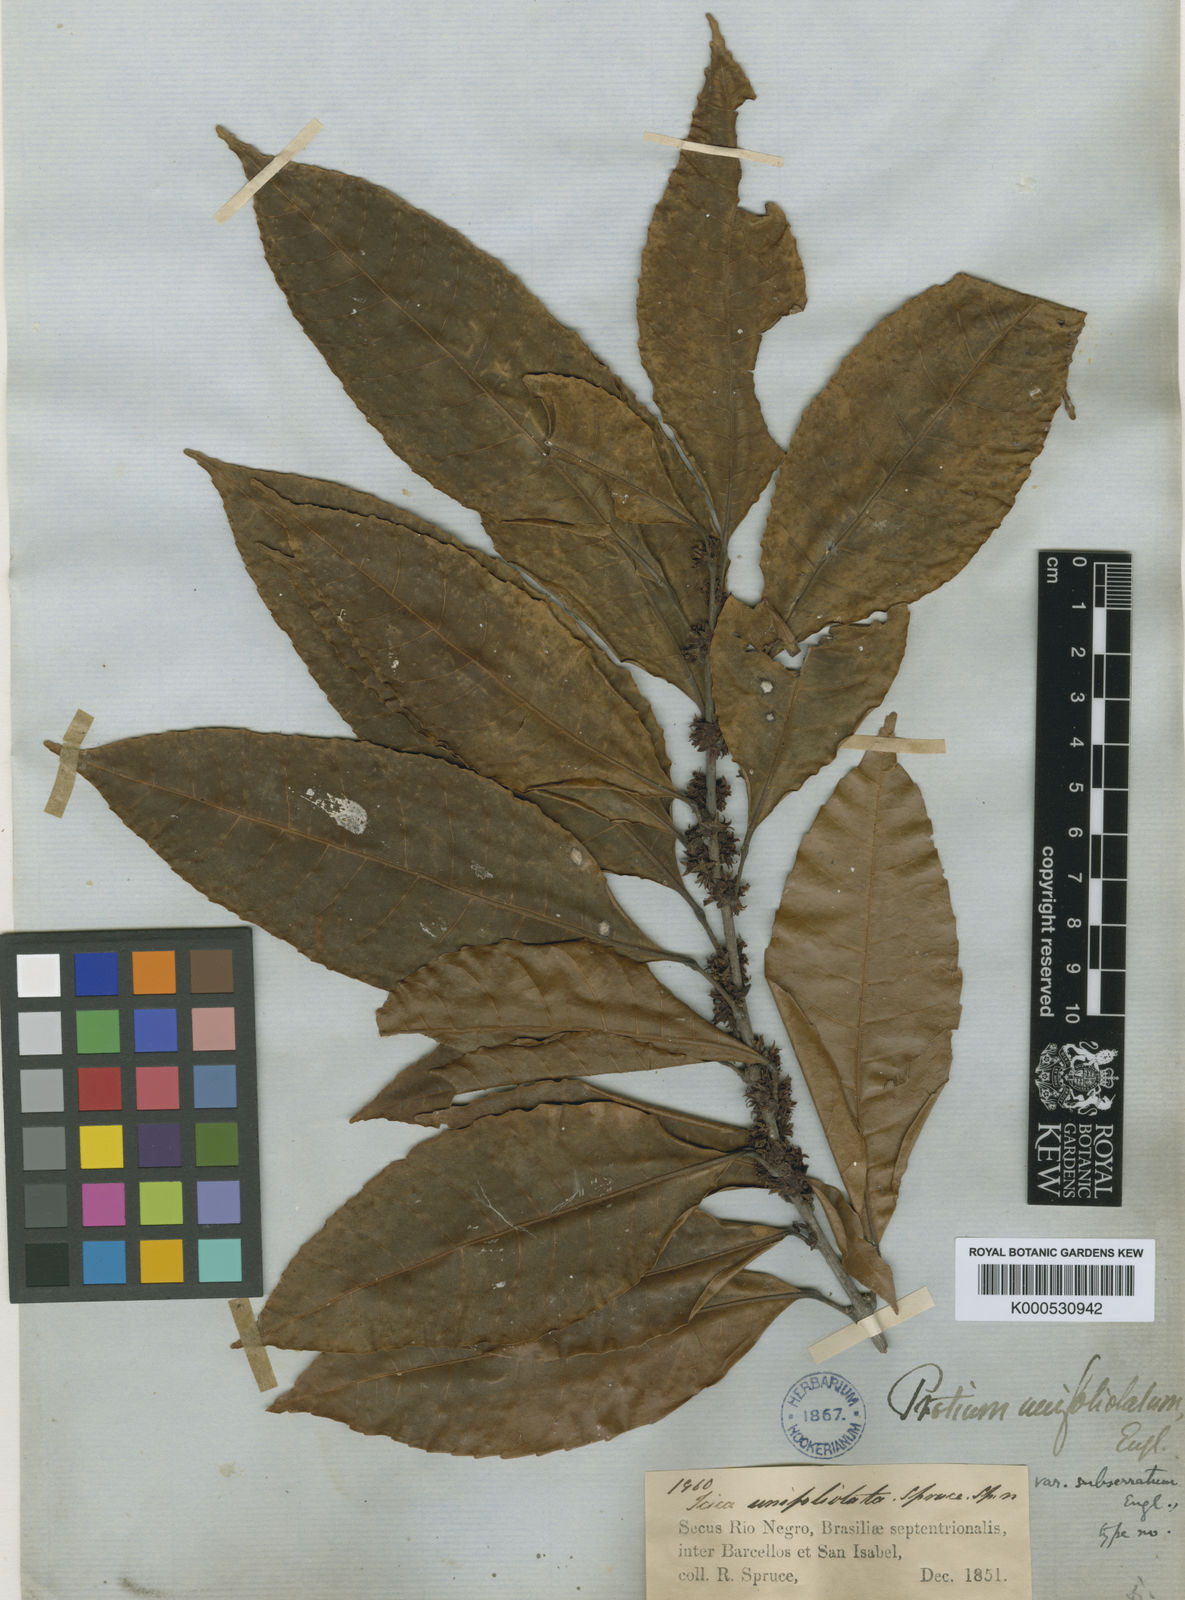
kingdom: Plantae
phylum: Tracheophyta
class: Magnoliopsida
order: Sapindales
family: Burseraceae
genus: Protium
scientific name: Protium unifoliolatum
